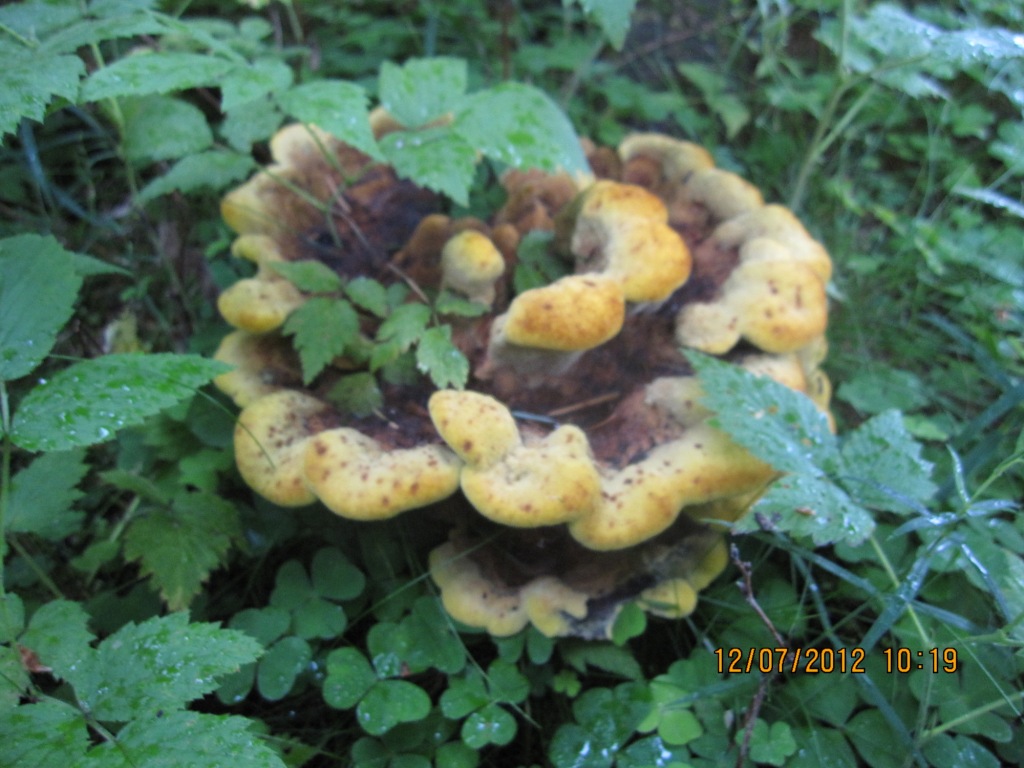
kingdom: Fungi
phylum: Basidiomycota
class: Agaricomycetes
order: Polyporales
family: Laetiporaceae
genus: Phaeolus
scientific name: Phaeolus schweinitzii
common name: brunporesvamp
